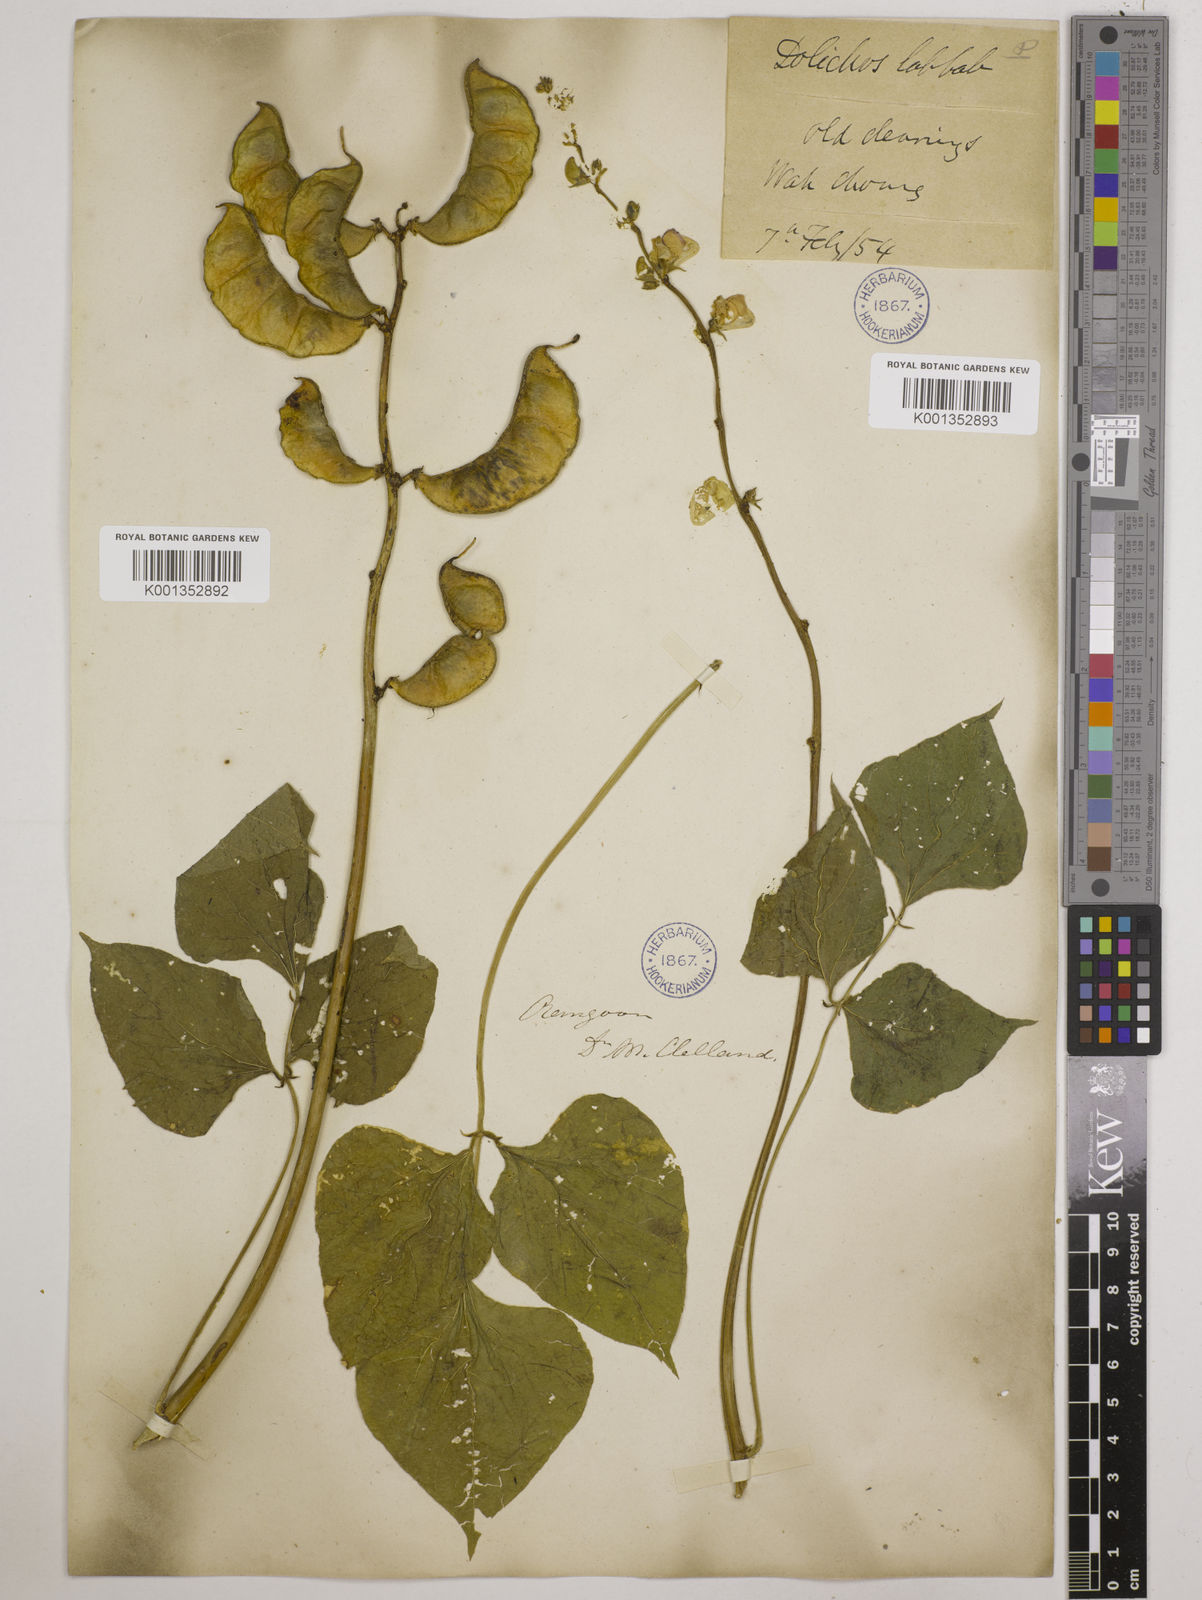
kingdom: Plantae
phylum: Tracheophyta
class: Magnoliopsida
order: Fabales
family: Fabaceae
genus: Lablab
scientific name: Lablab purpureus
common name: Lablab-bean
